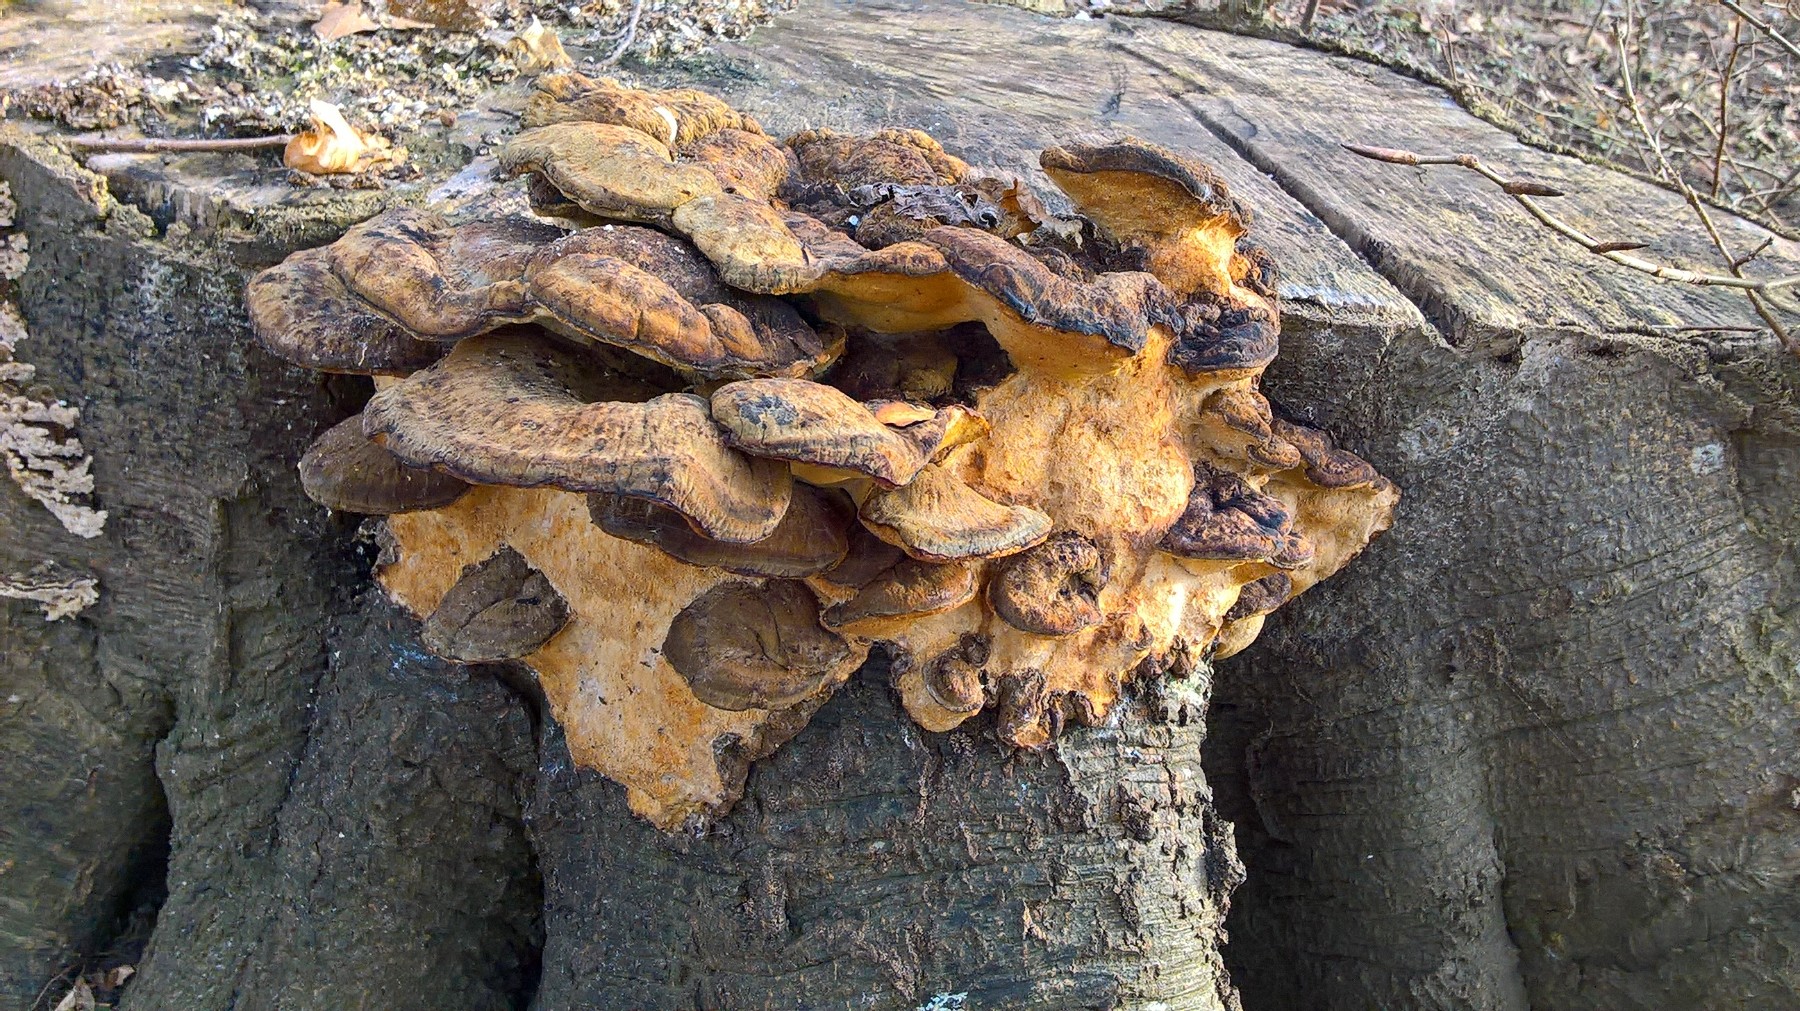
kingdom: Fungi
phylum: Basidiomycota
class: Agaricomycetes
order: Polyporales
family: Ischnodermataceae
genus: Ischnoderma
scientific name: Ischnoderma resinosum
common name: løv-tjæreporesvamp
